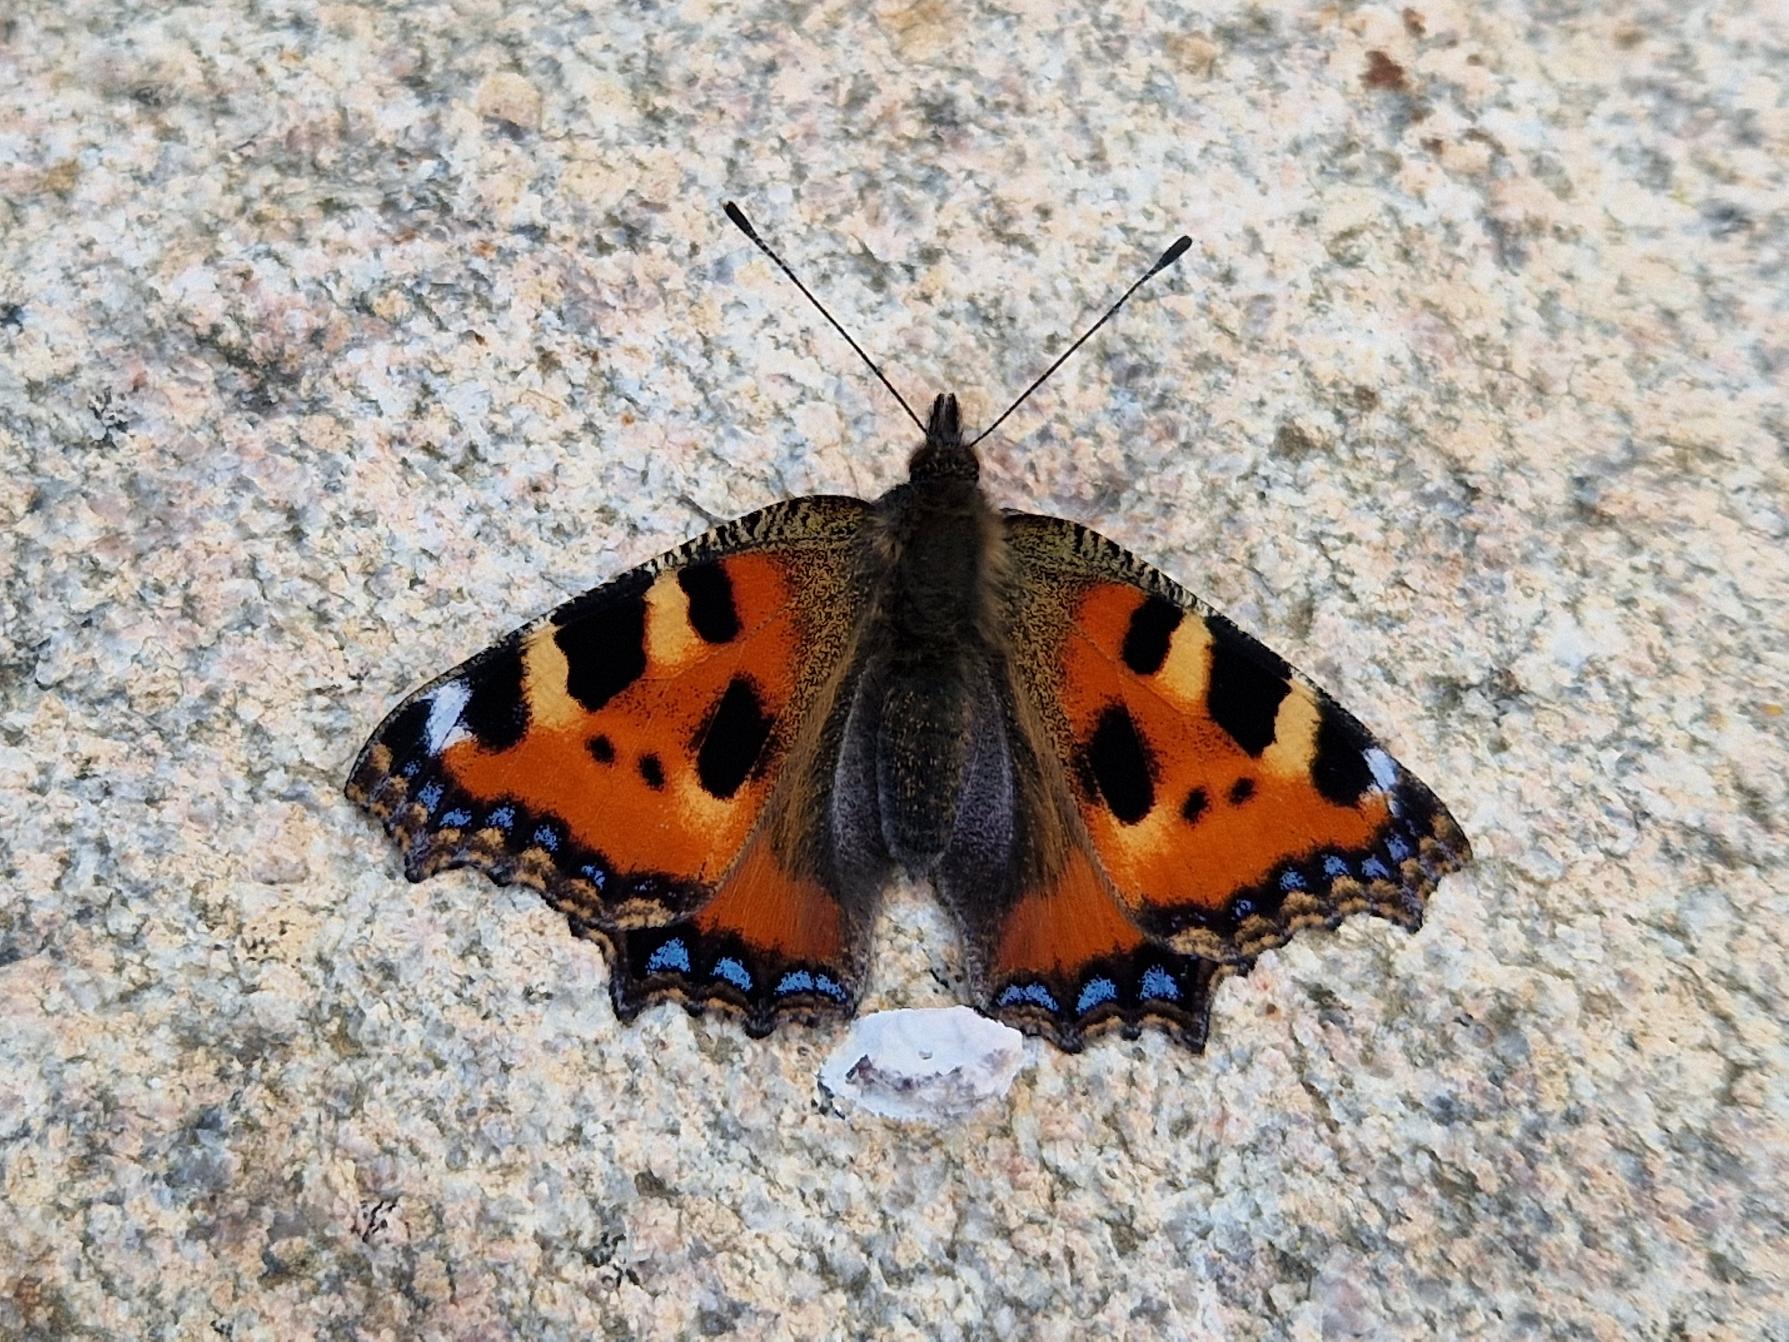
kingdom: Animalia
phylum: Arthropoda
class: Insecta
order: Lepidoptera
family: Nymphalidae
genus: Aglais
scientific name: Aglais urticae
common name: Nældens takvinge
